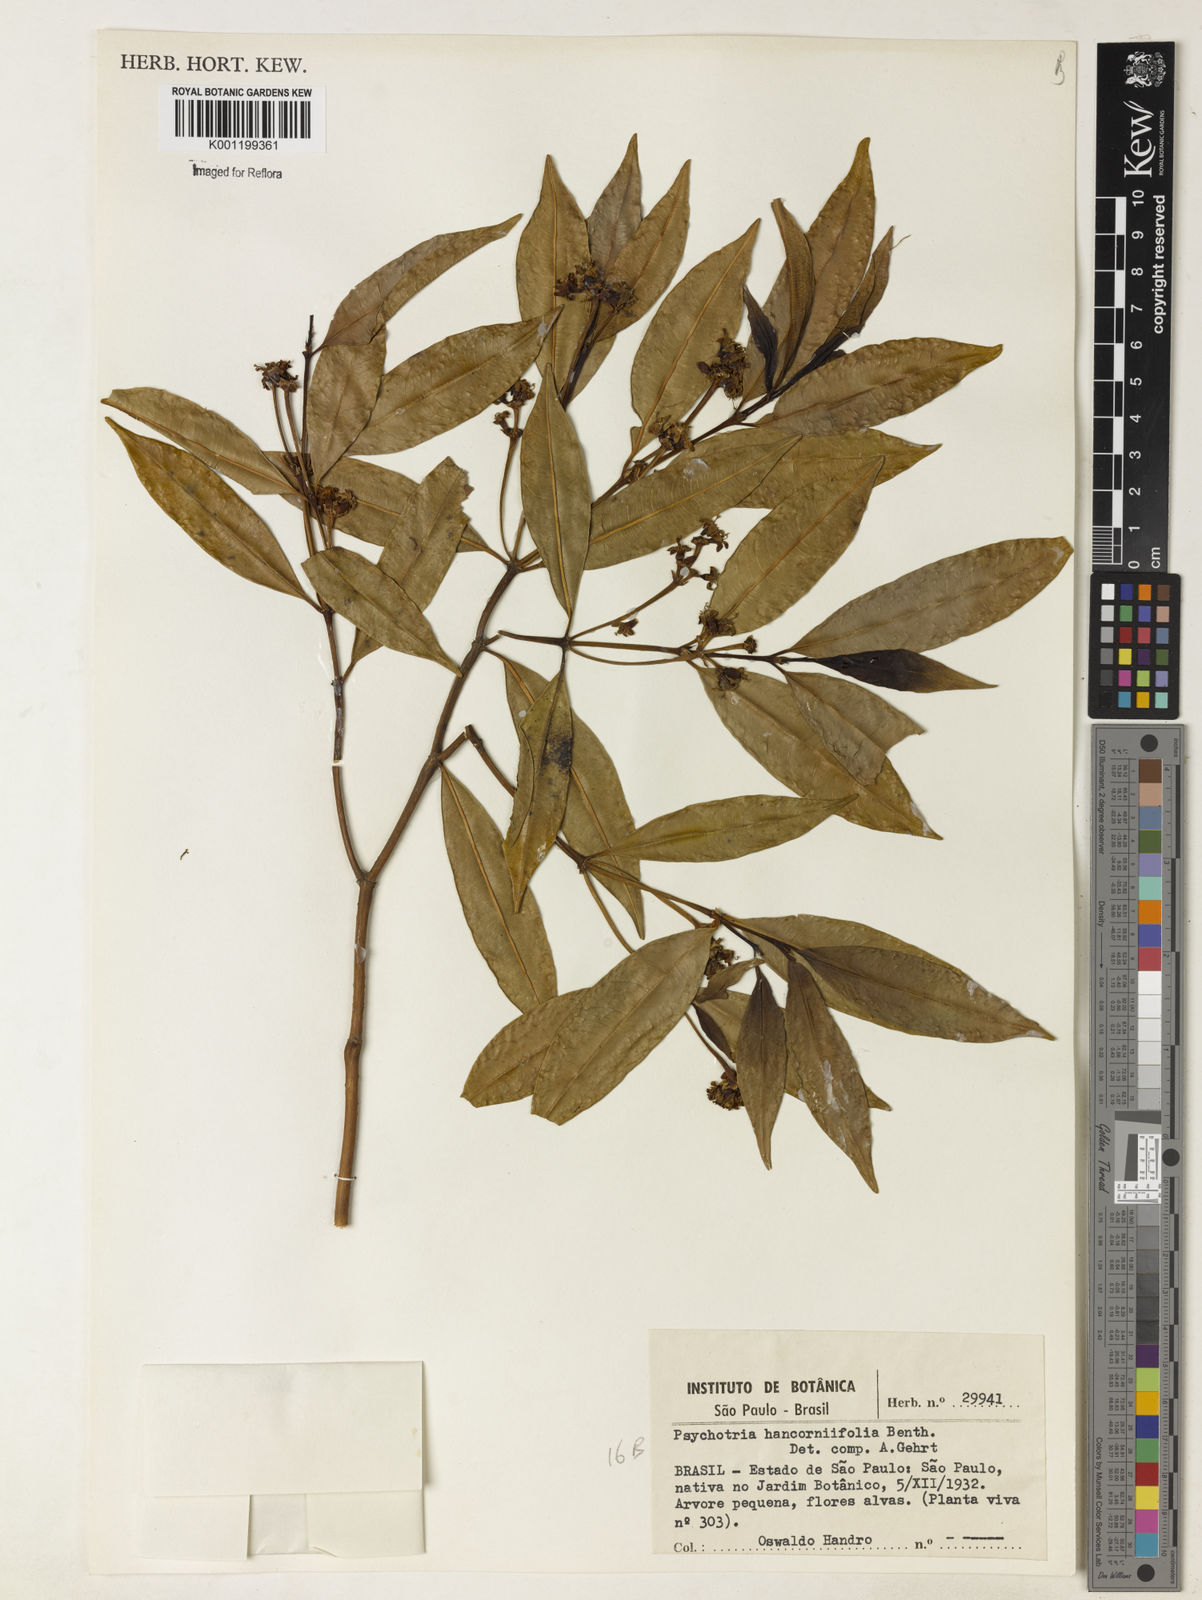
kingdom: Plantae
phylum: Tracheophyta
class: Magnoliopsida
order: Gentianales
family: Rubiaceae
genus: Palicourea
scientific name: Palicourea sessilis
